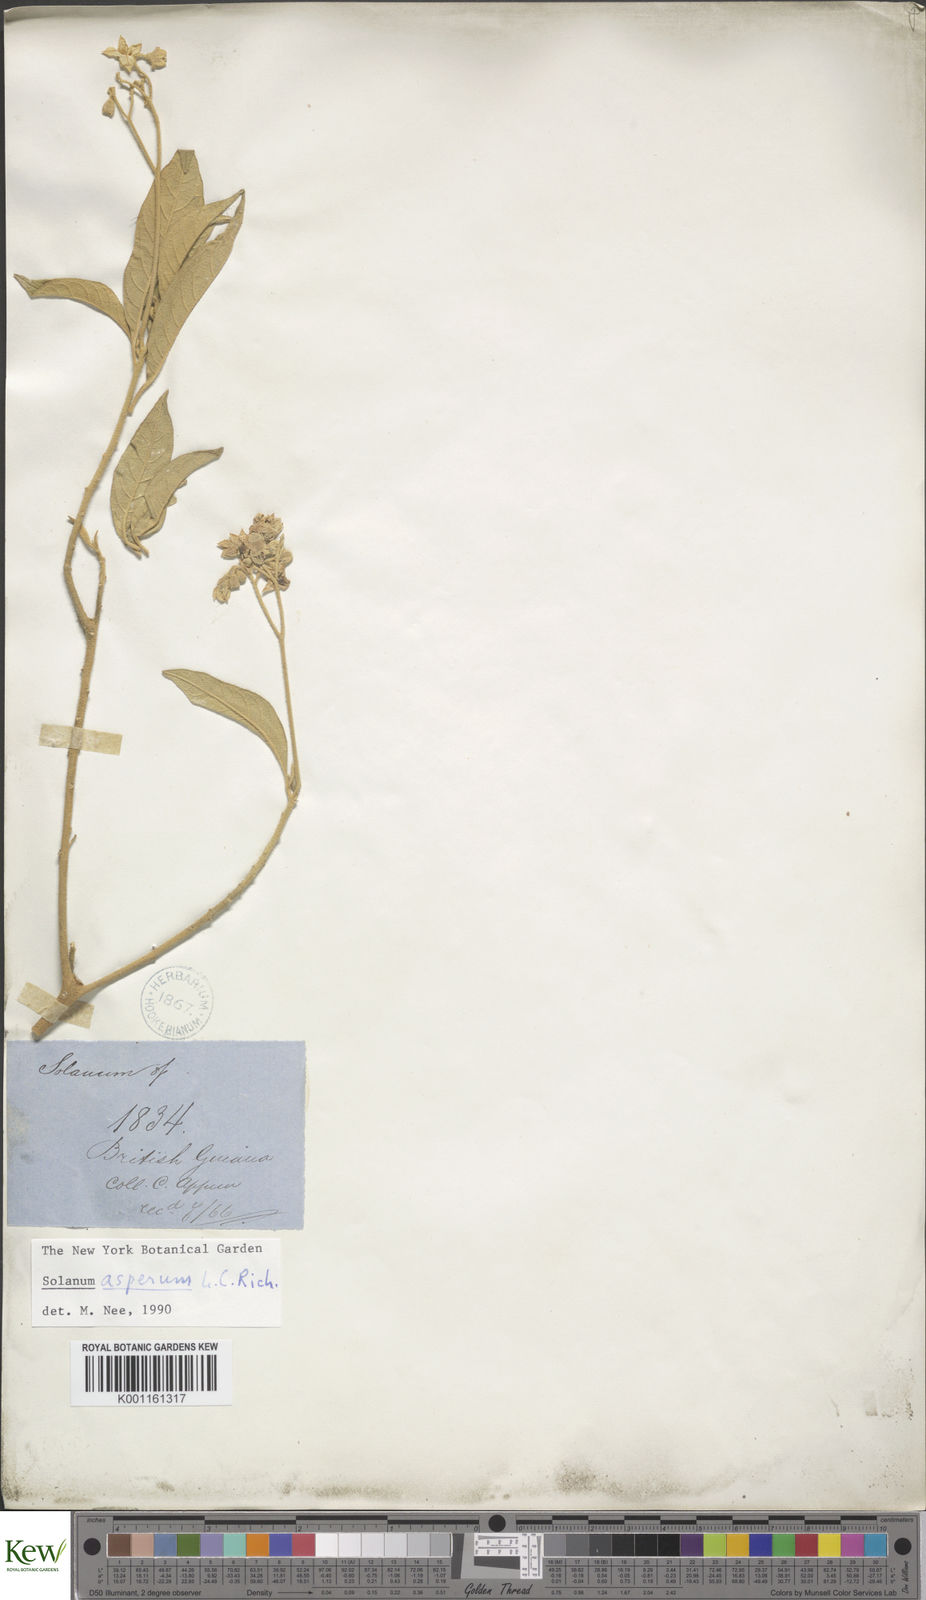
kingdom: Plantae
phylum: Tracheophyta
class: Magnoliopsida
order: Solanales
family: Solanaceae
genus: Solanum
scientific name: Solanum asperum
